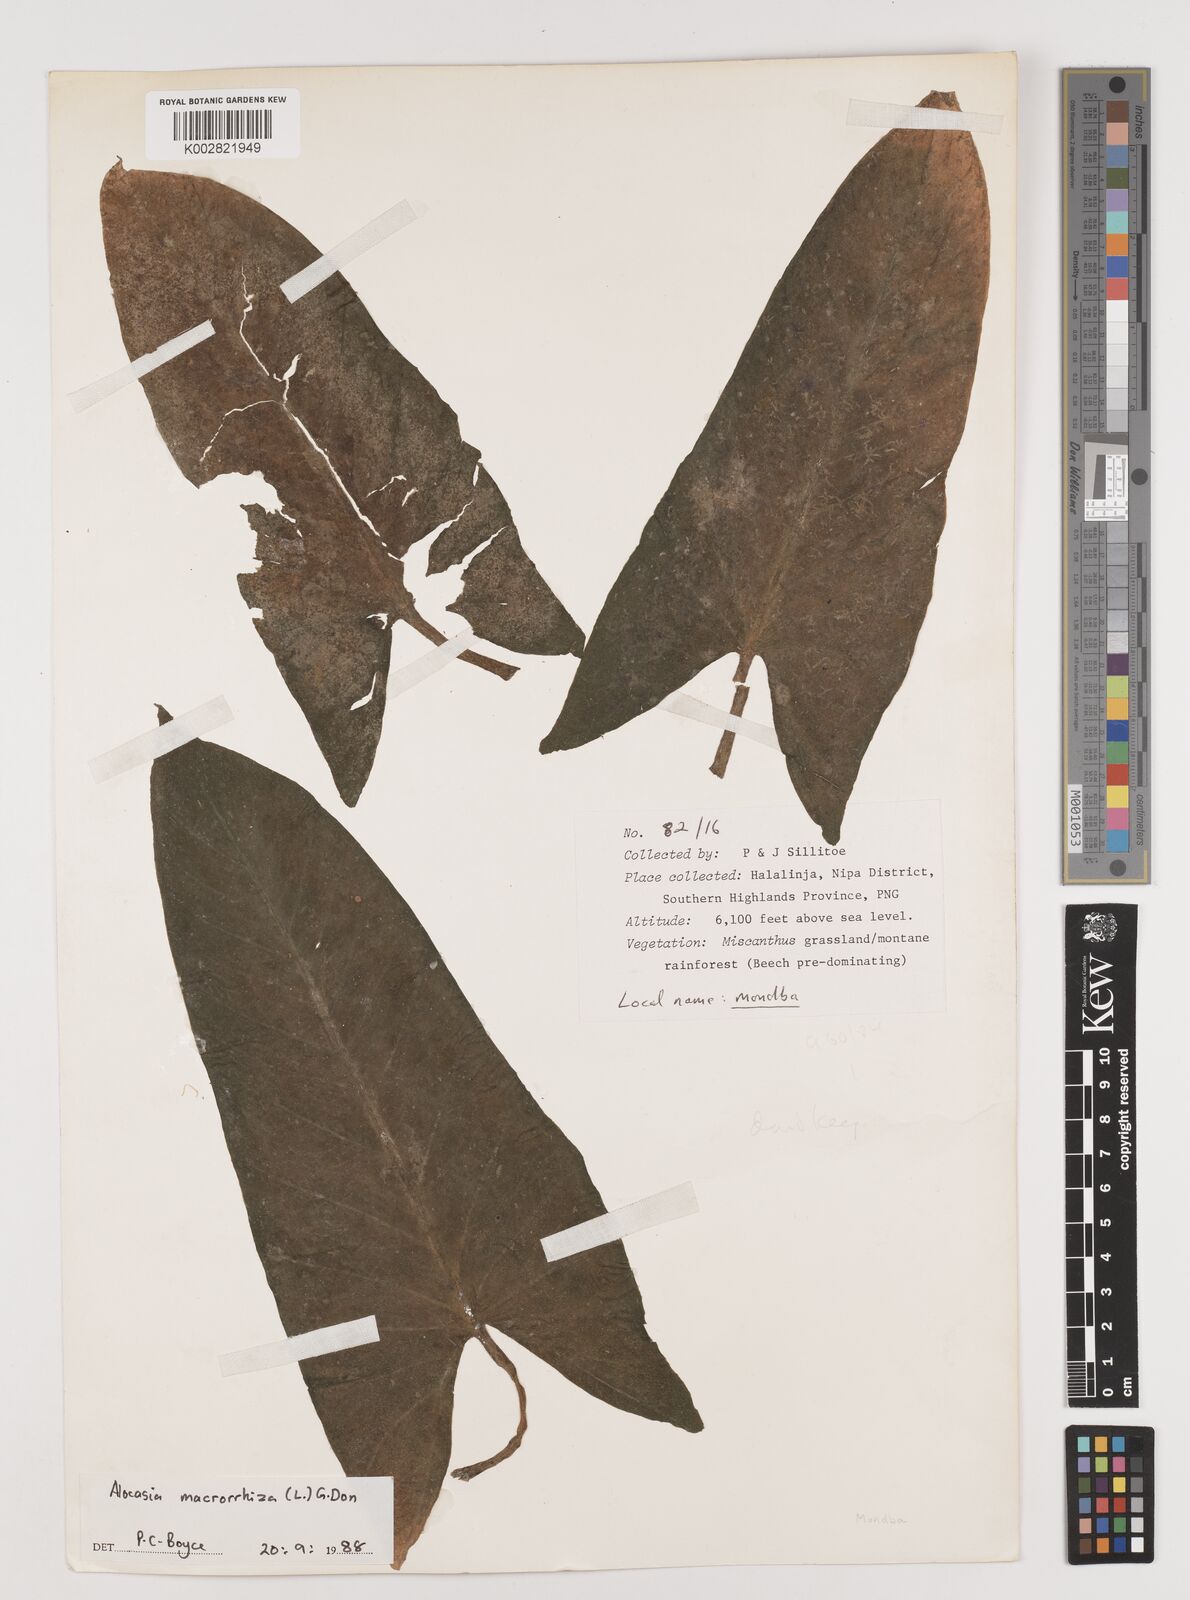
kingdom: Plantae
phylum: Tracheophyta
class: Liliopsida
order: Alismatales
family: Araceae
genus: Alocasia
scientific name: Alocasia macrorrhizos
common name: Giant taro
